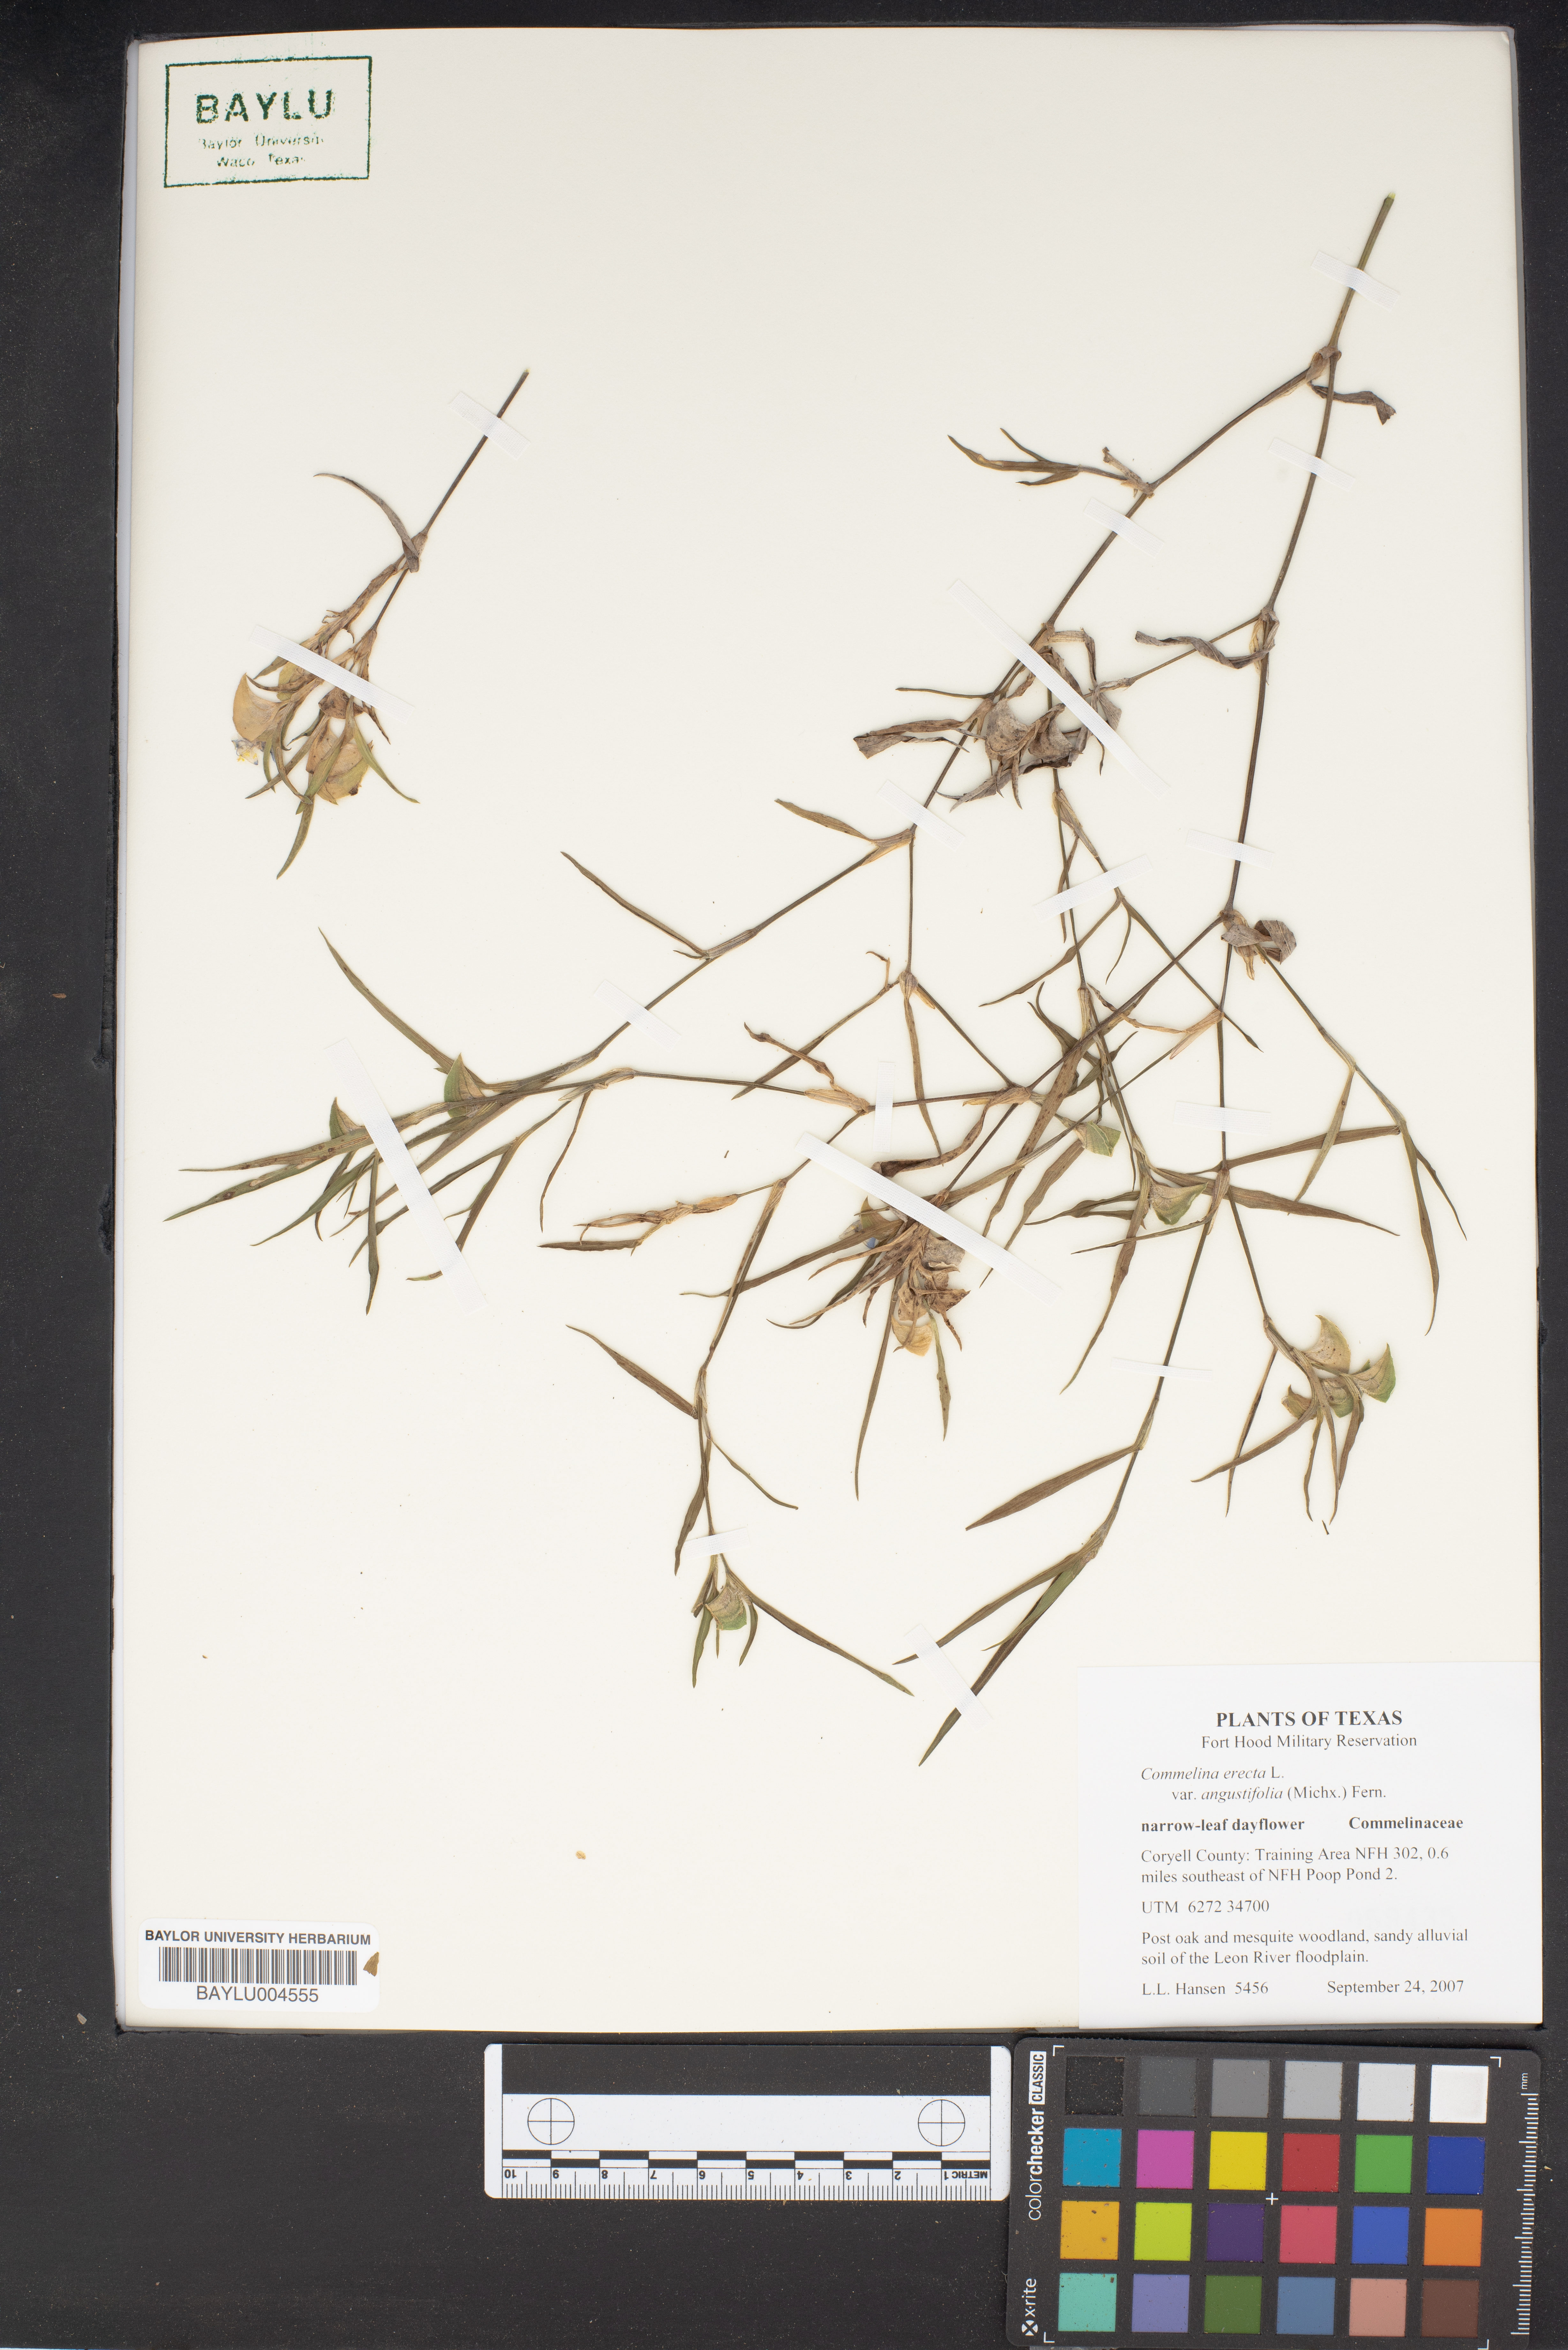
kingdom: Plantae
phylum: Tracheophyta
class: Liliopsida
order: Commelinales
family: Commelinaceae
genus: Commelina
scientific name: Commelina erecta
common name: Blousel blommetjie
